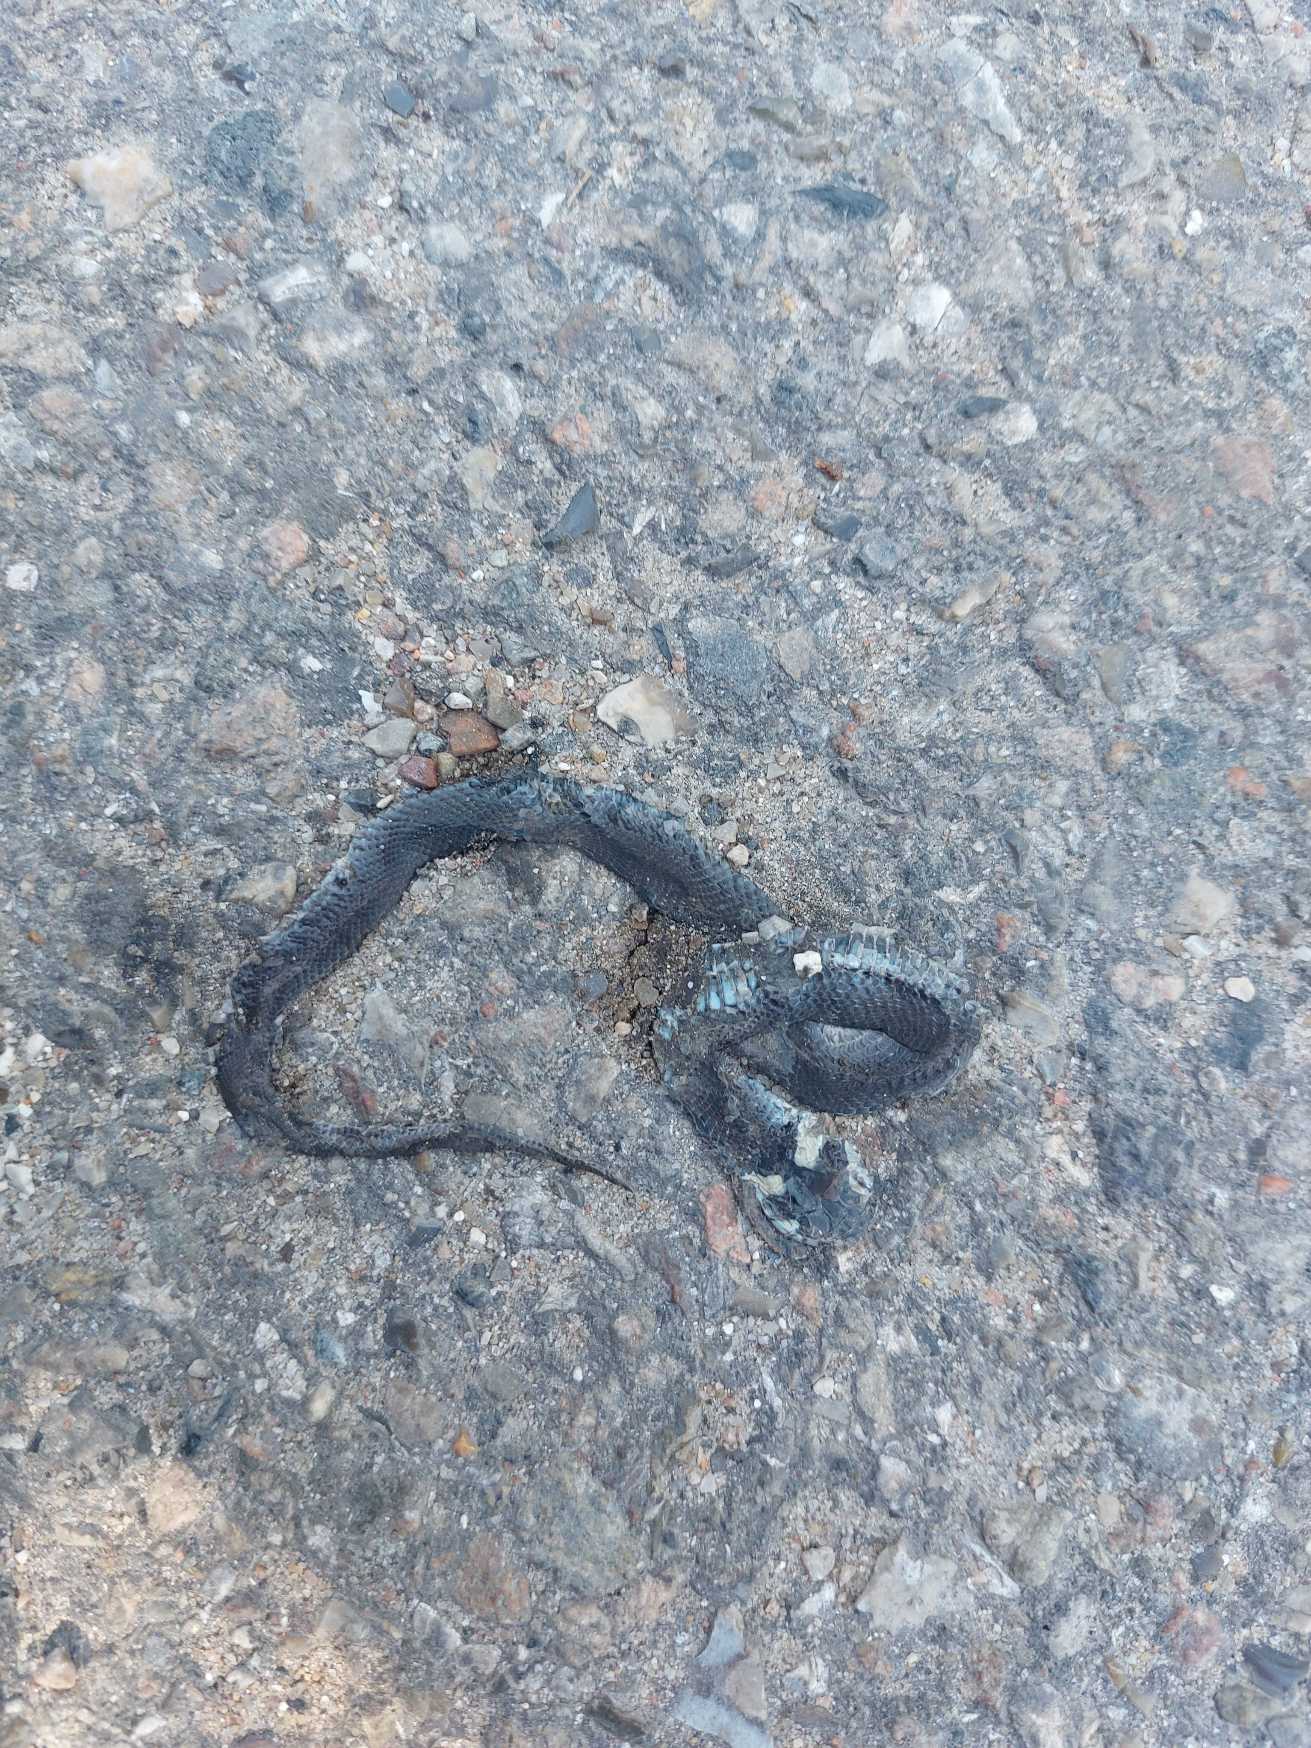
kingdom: Animalia
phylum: Chordata
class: Squamata
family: Colubridae
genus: Natrix
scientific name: Natrix natrix
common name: Snog
